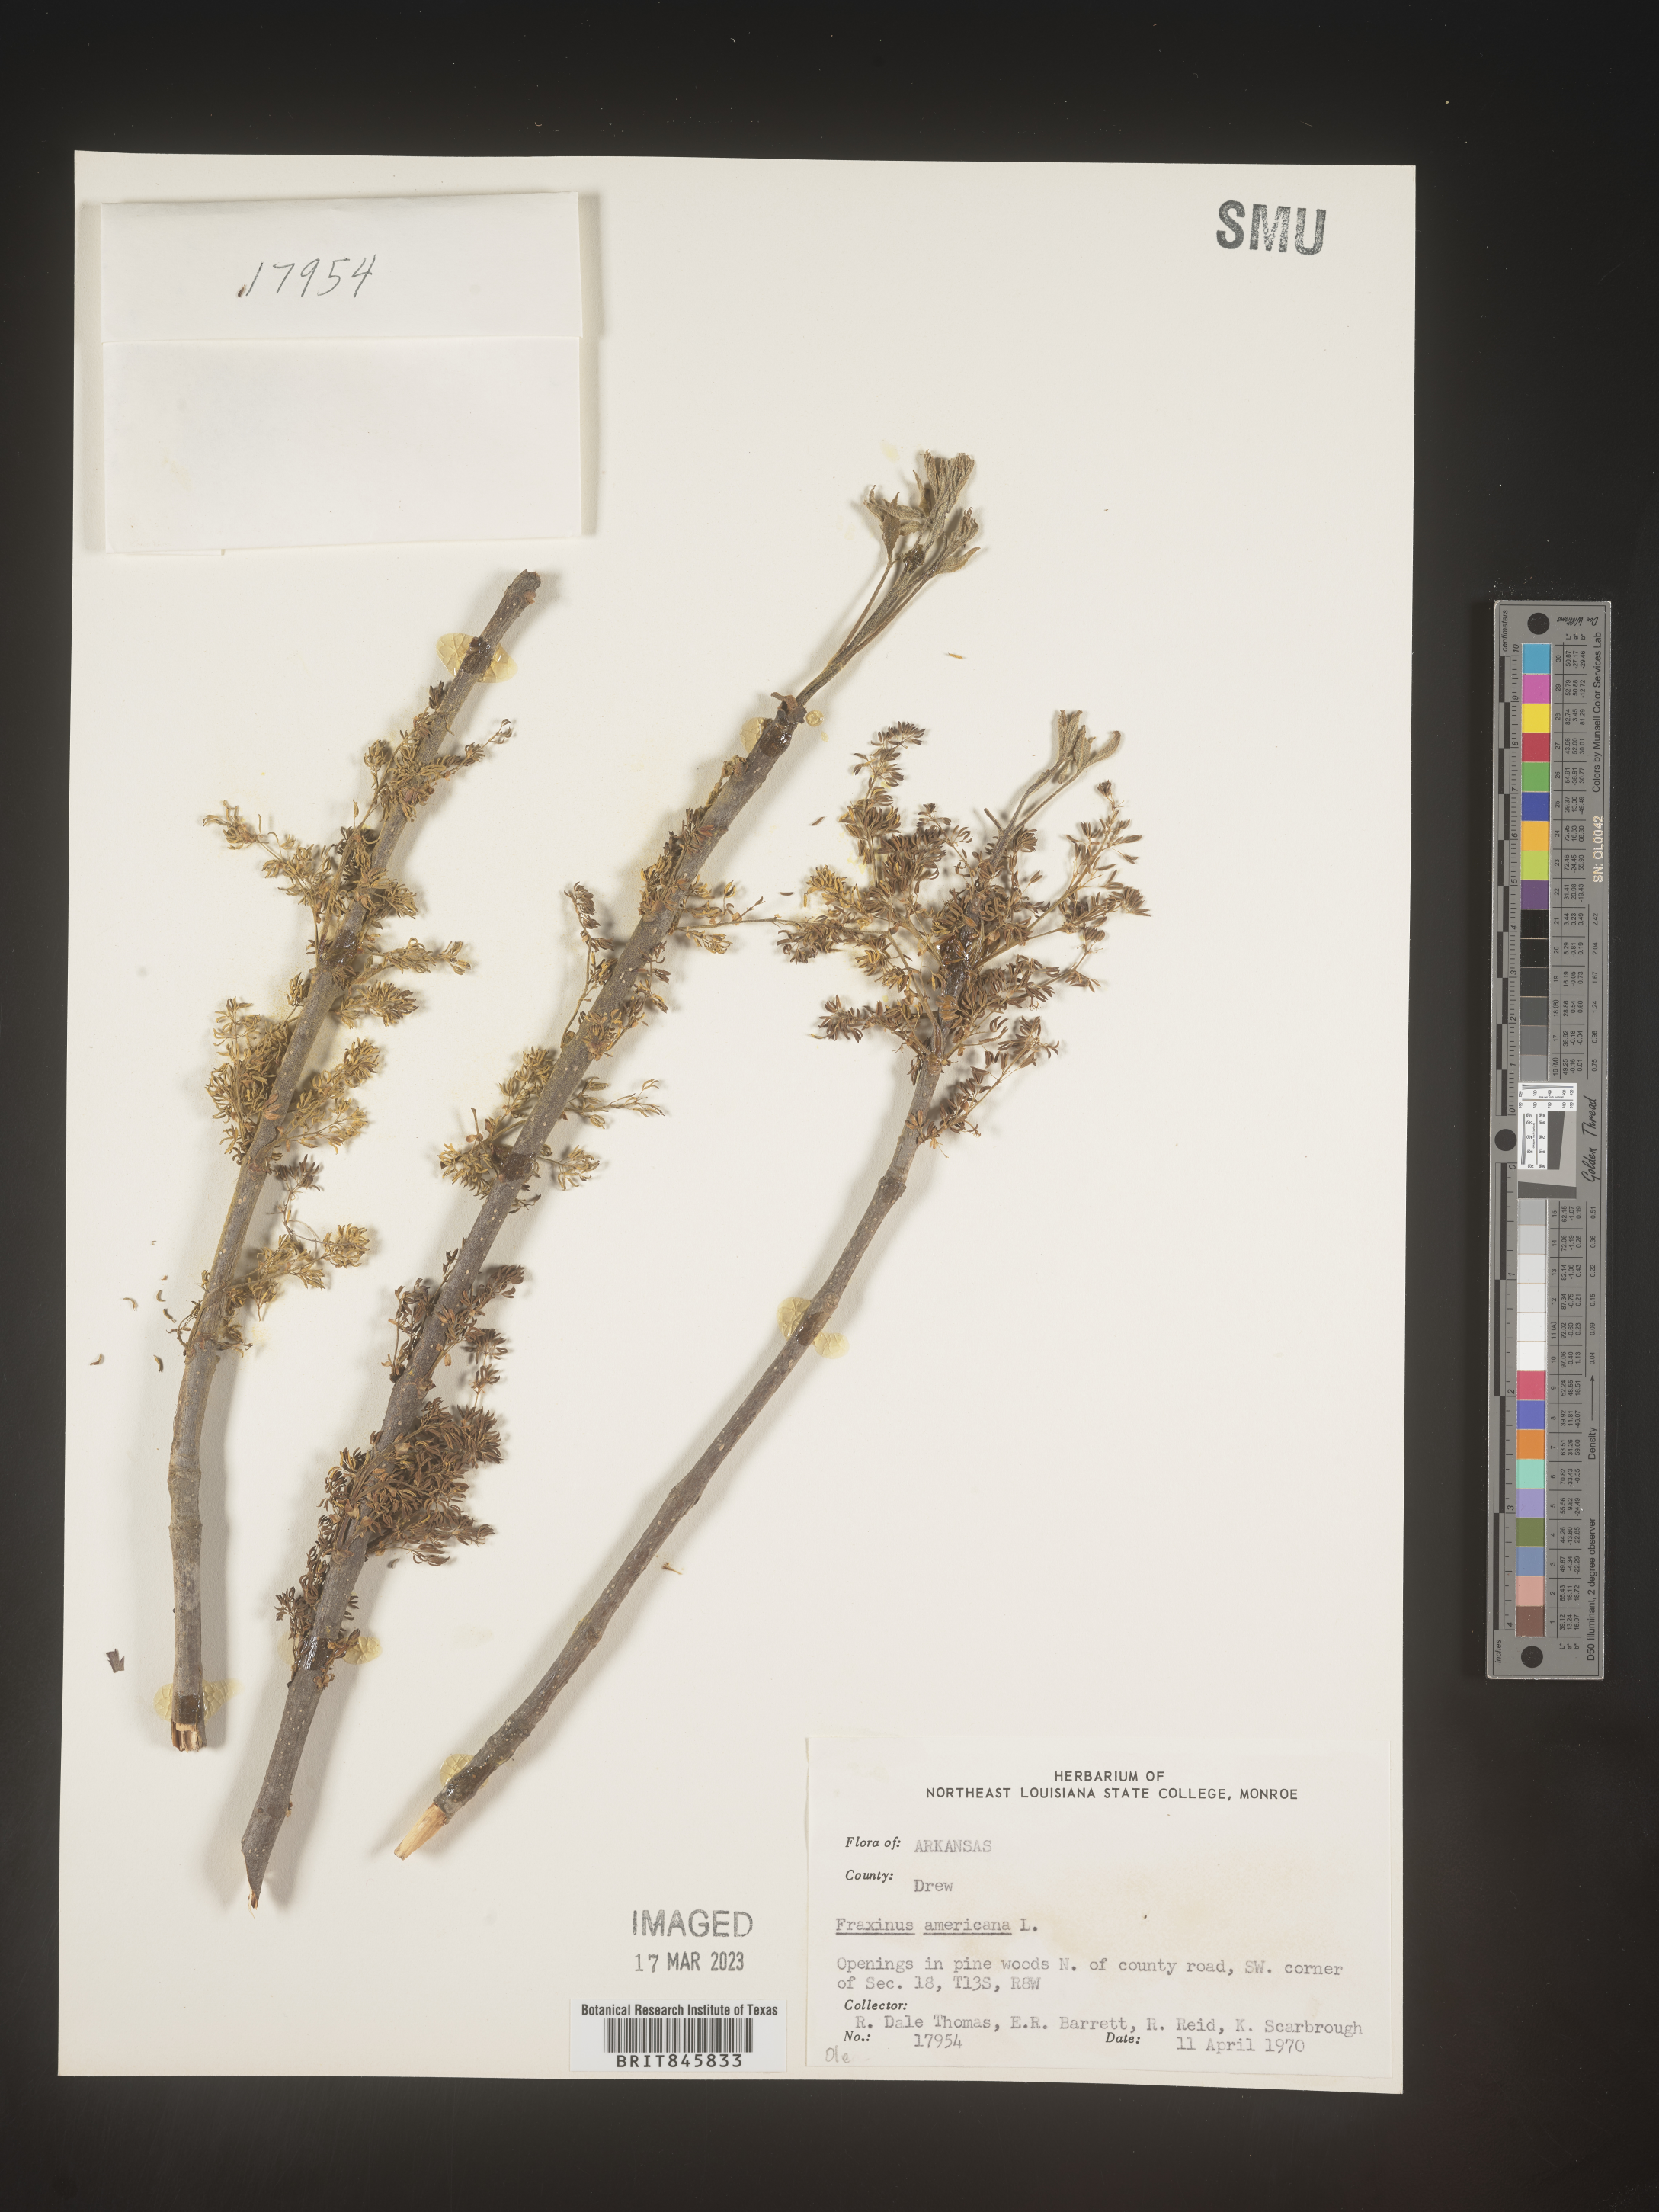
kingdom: Plantae
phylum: Tracheophyta
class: Magnoliopsida
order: Lamiales
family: Oleaceae
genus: Fraxinus
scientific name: Fraxinus americana
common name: White ash
